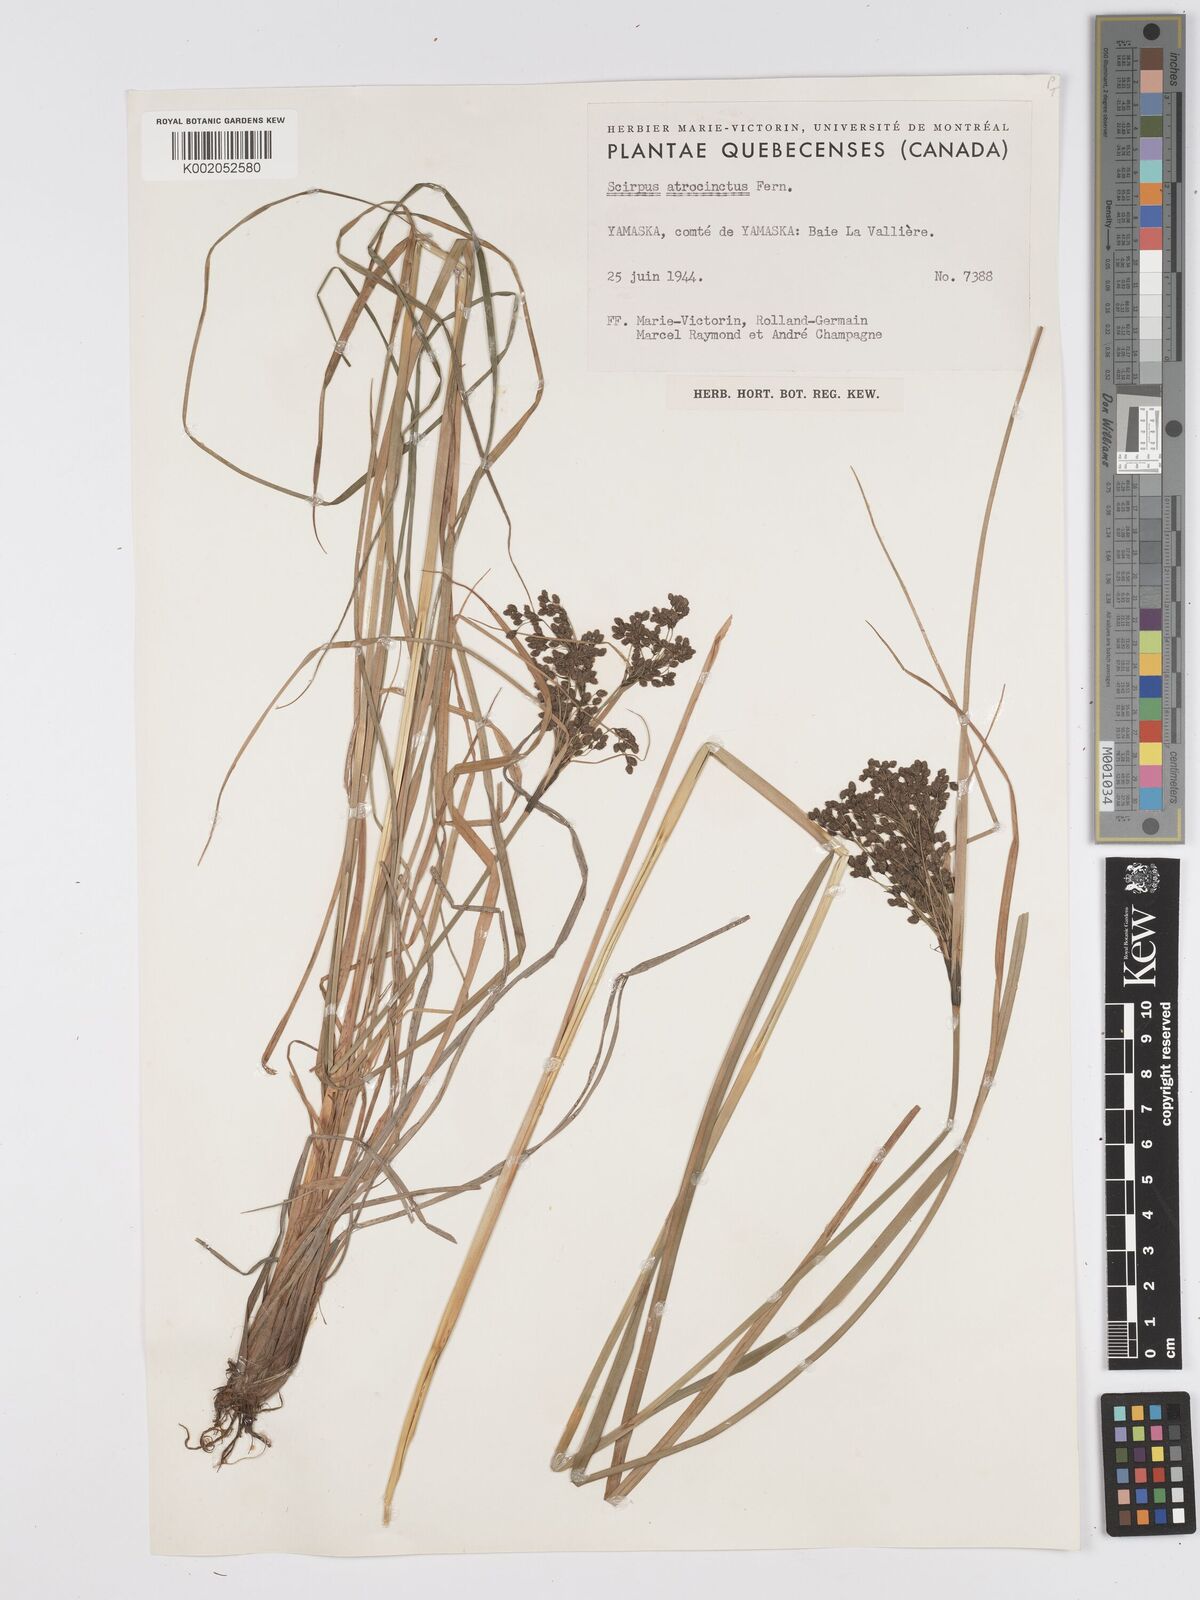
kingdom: Plantae
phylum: Tracheophyta
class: Liliopsida
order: Poales
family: Cyperaceae
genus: Scirpus
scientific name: Scirpus atrocinctus
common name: Black-girdled bulrush
